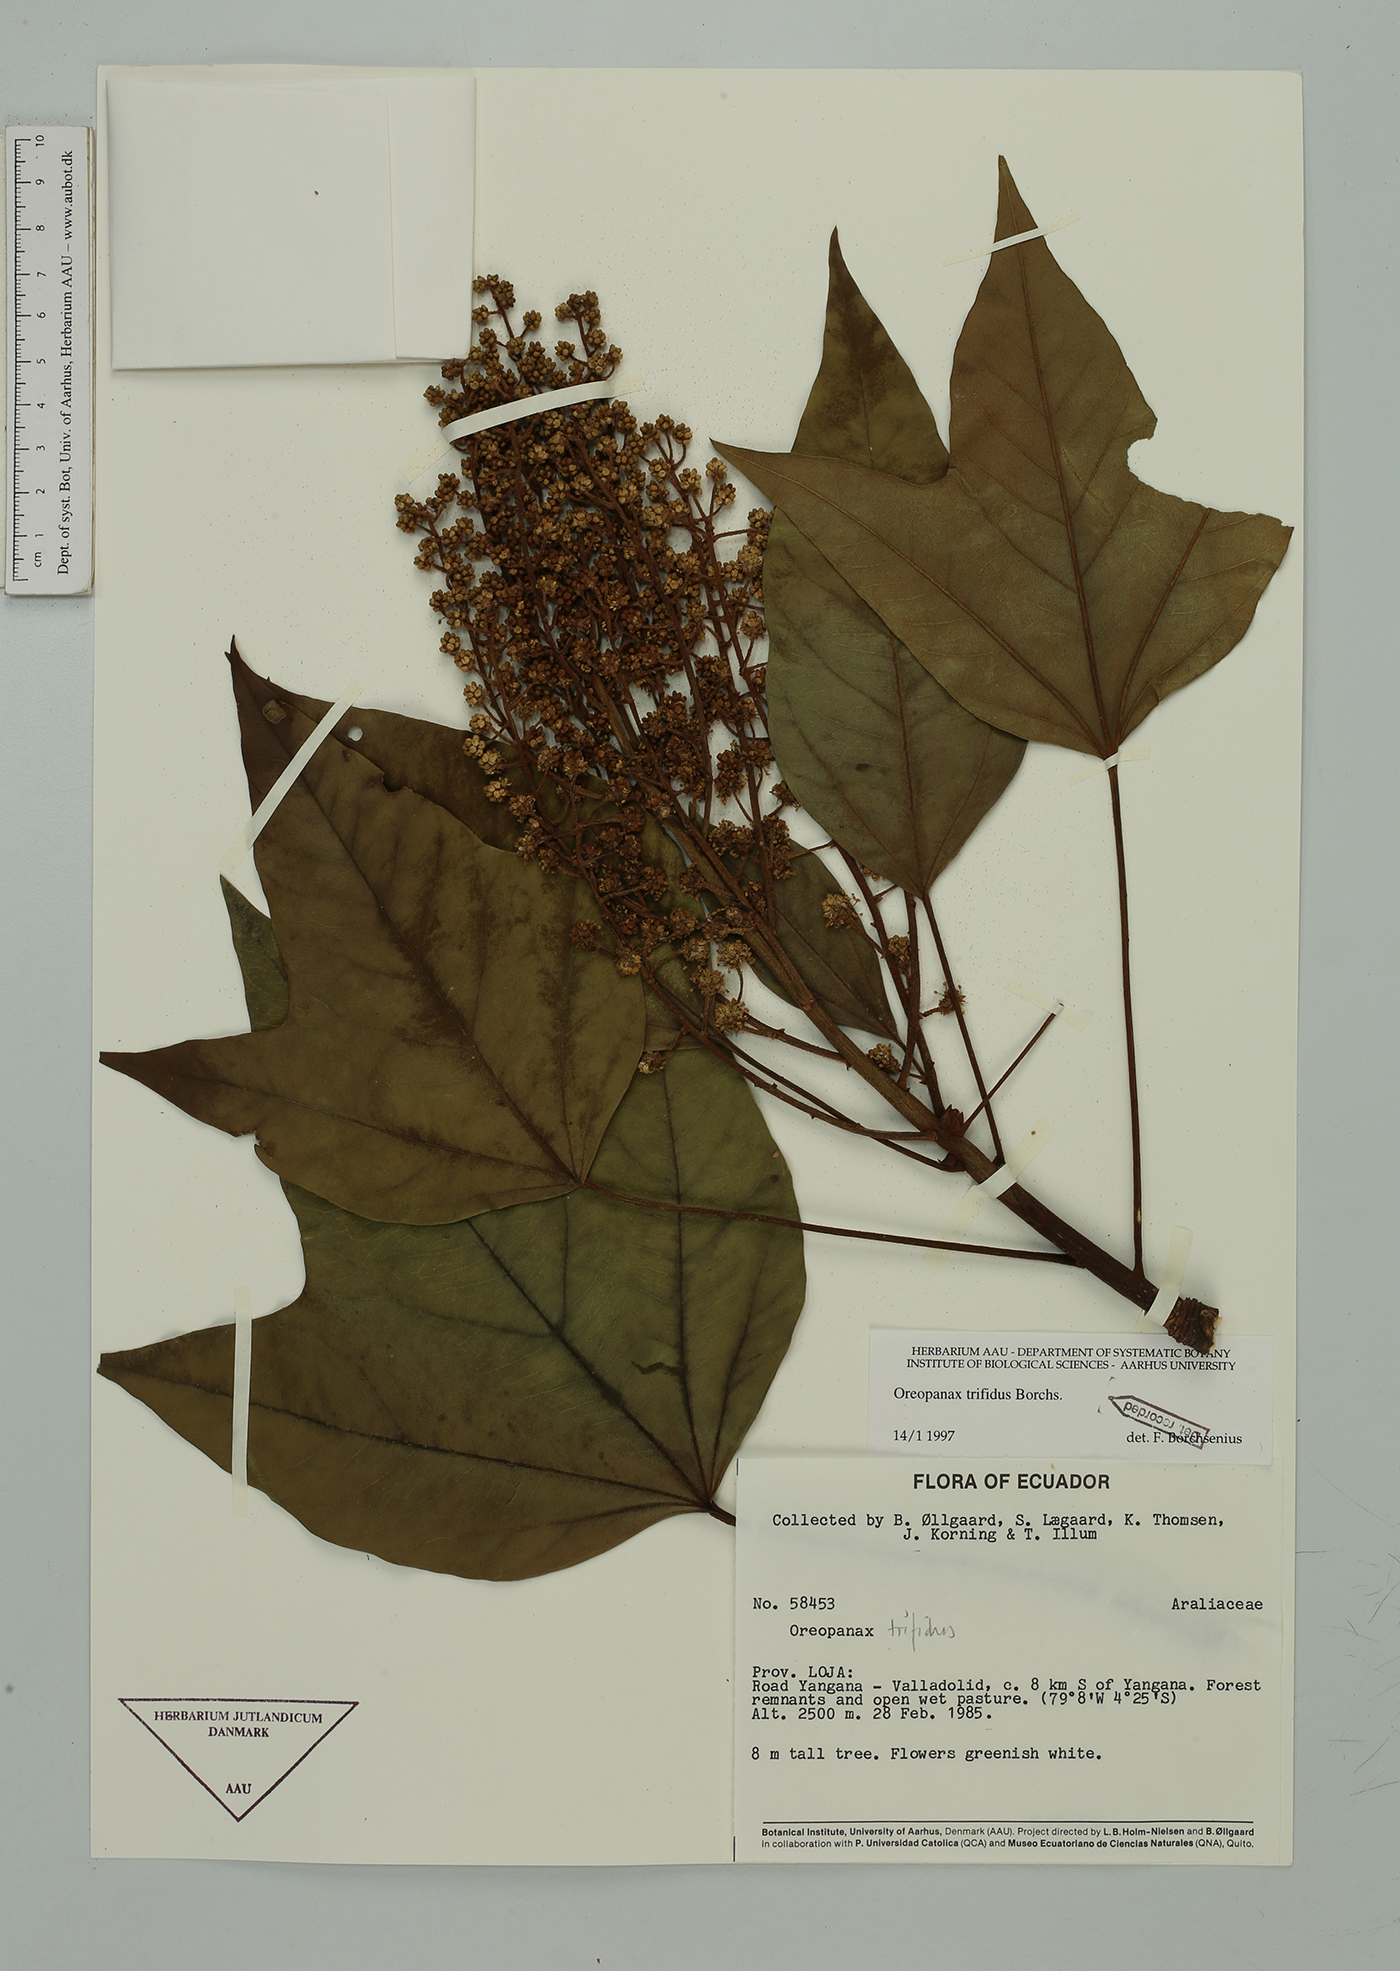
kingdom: Plantae
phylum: Tracheophyta
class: Magnoliopsida
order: Apiales
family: Araliaceae
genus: Oreopanax
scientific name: Oreopanax trifidus
